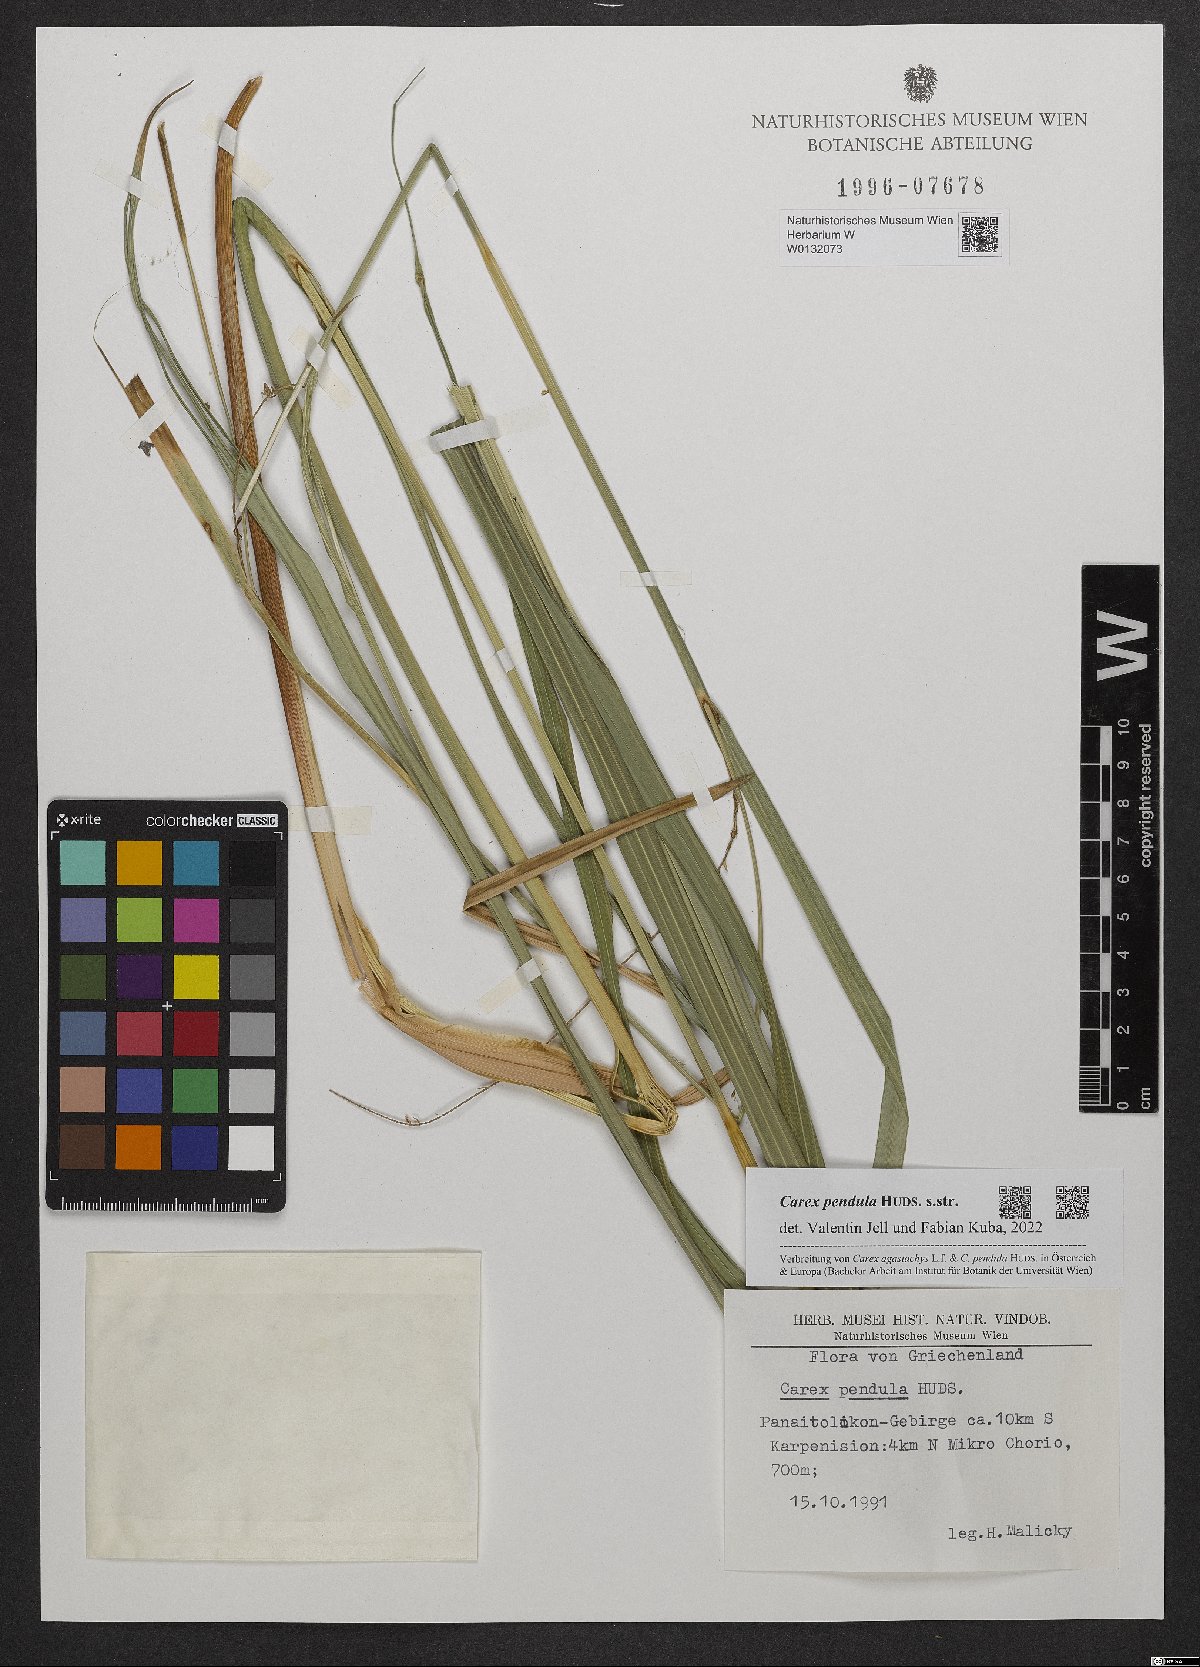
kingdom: Plantae
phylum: Tracheophyta
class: Liliopsida
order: Poales
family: Cyperaceae
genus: Carex
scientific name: Carex pendula
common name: Pendulous sedge
